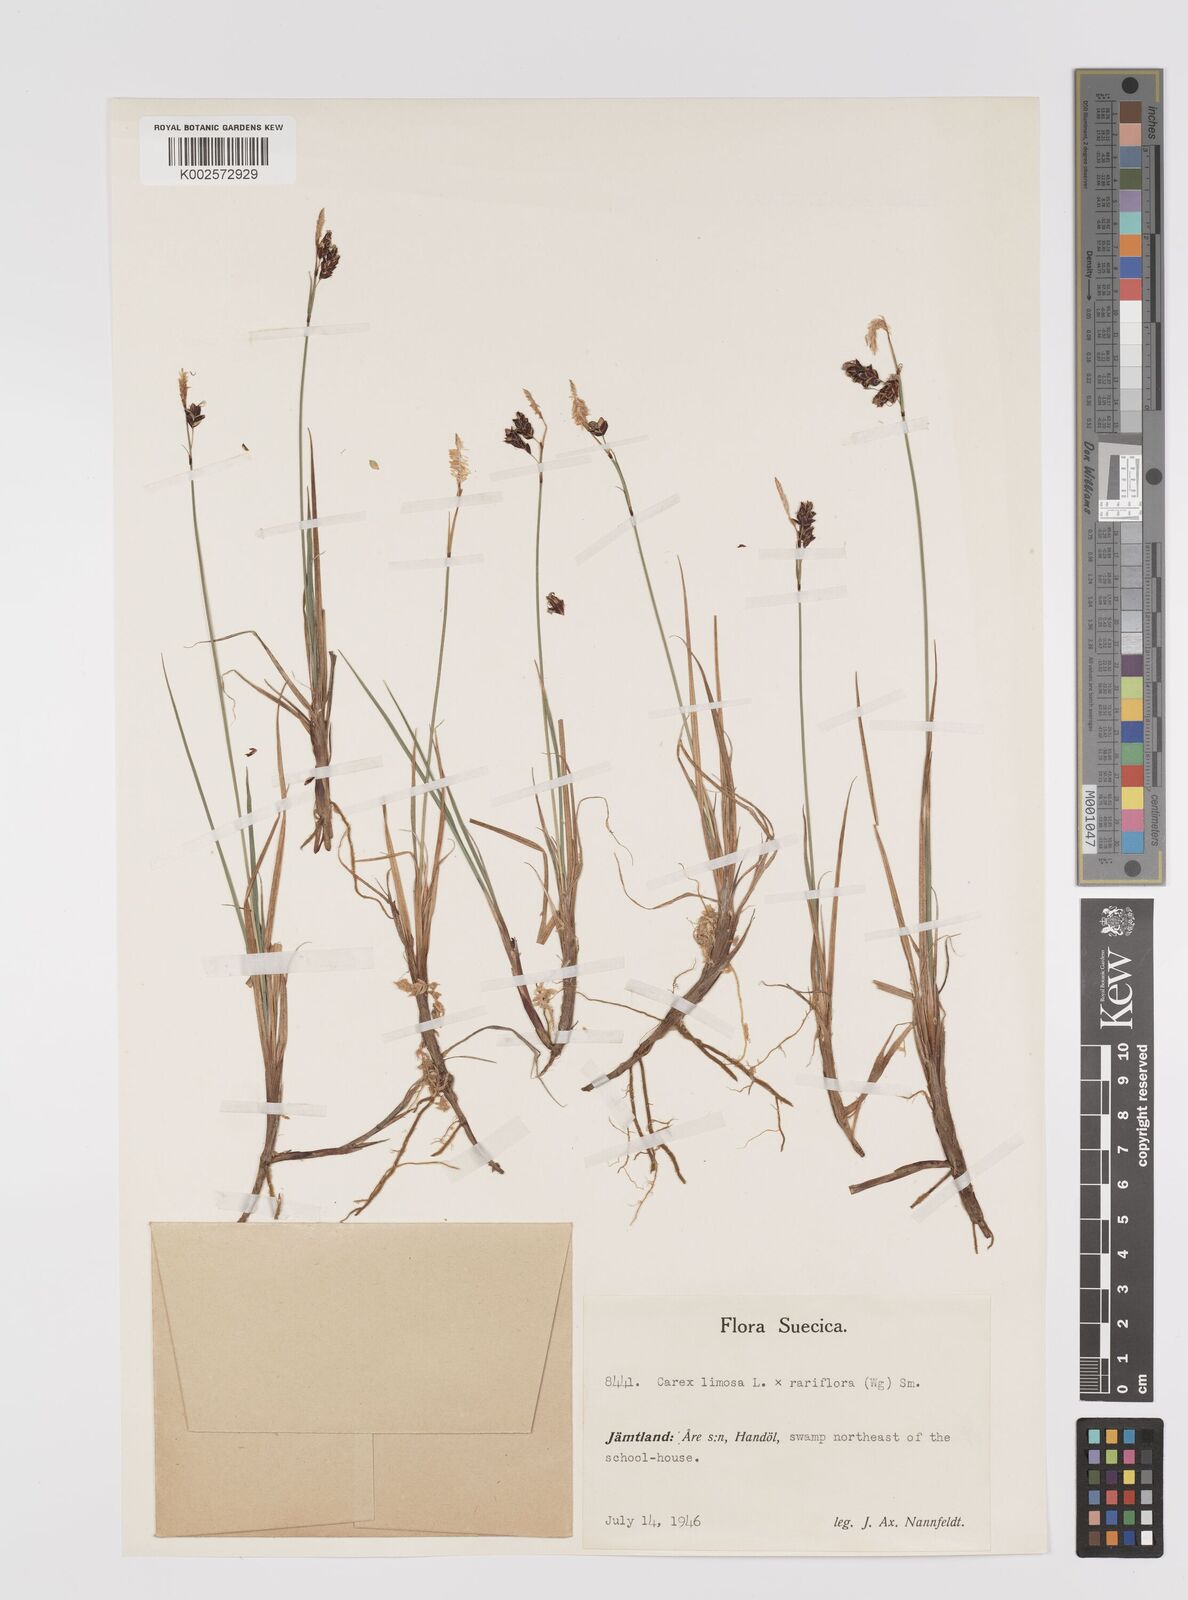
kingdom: Plantae
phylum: Tracheophyta
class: Liliopsida
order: Poales
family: Cyperaceae
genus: Carex
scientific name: Carex rariflora
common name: Loose-flowered alpine sedge
